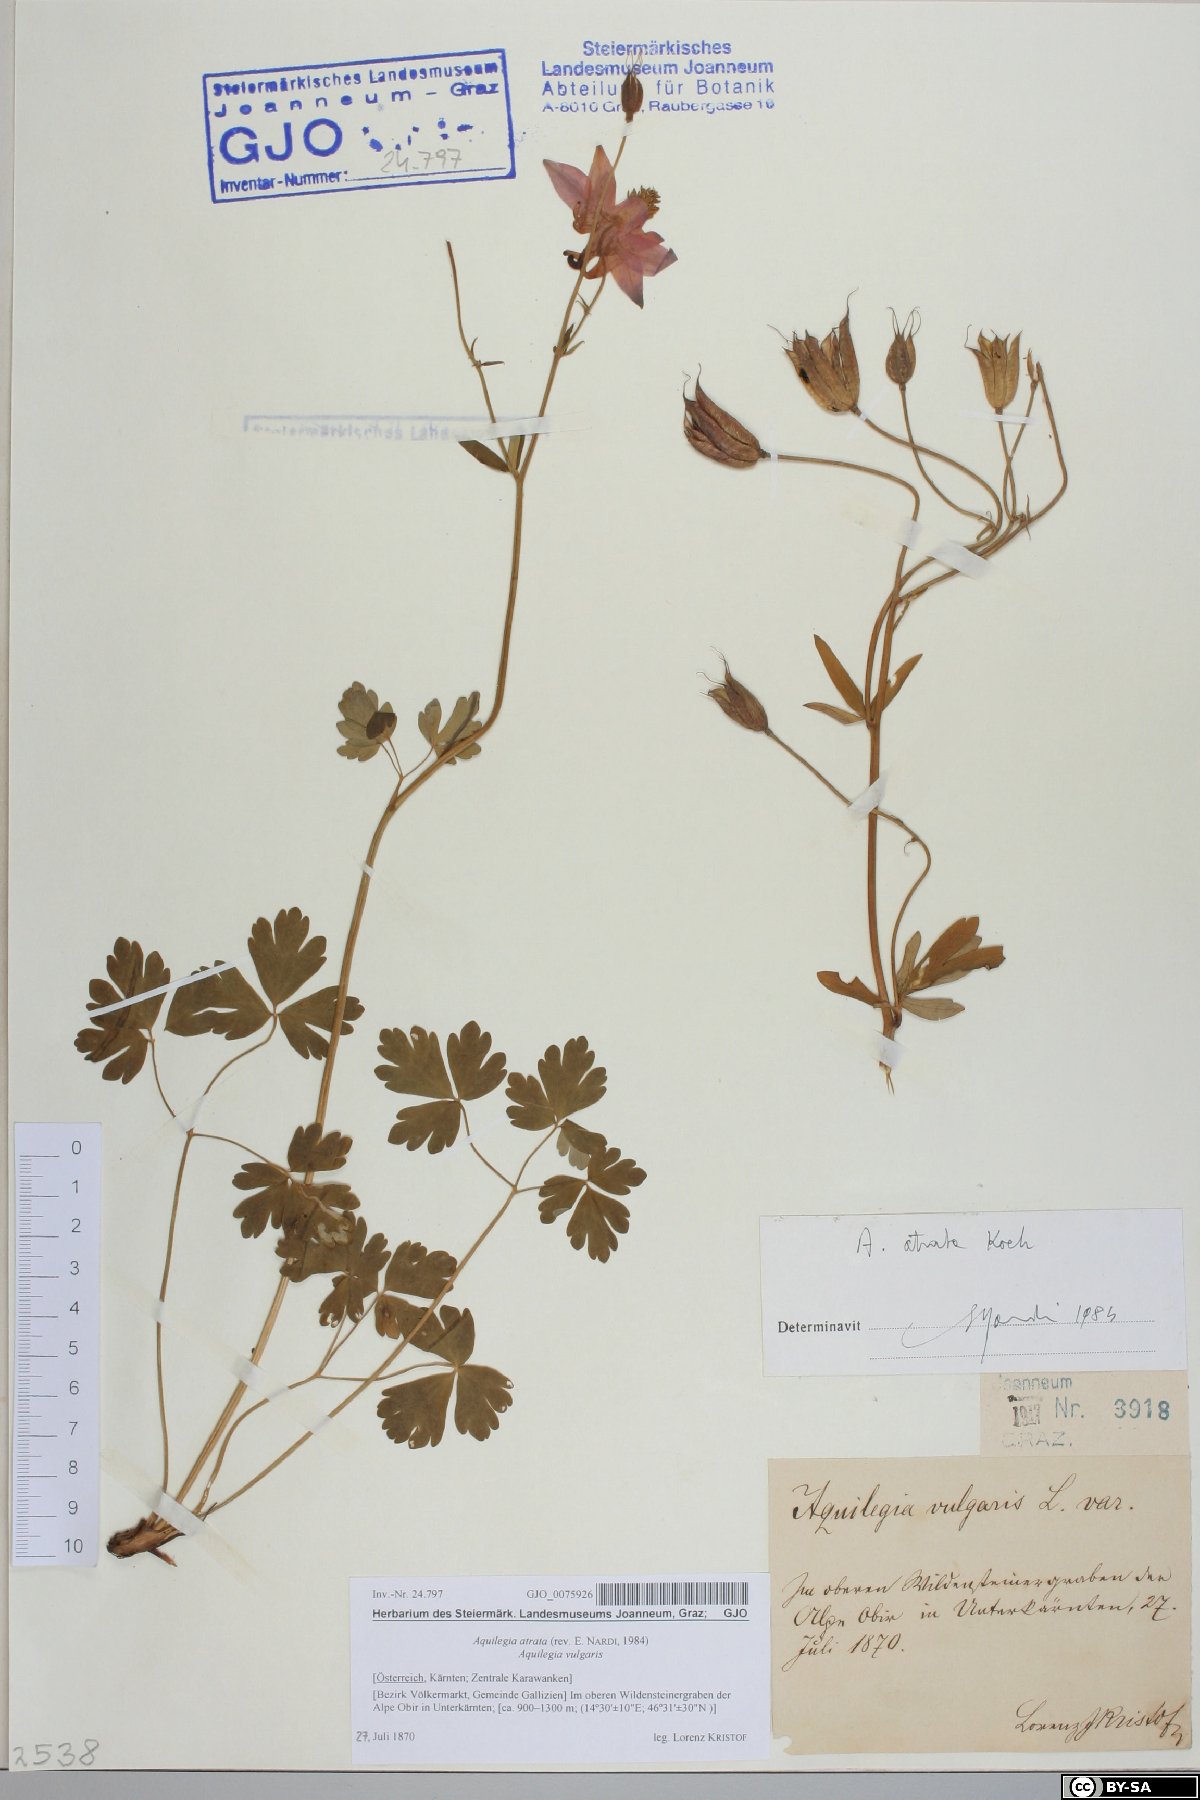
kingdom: Plantae
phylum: Tracheophyta
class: Magnoliopsida
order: Ranunculales
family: Ranunculaceae
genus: Aquilegia
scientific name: Aquilegia atrata
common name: Dark columbine
